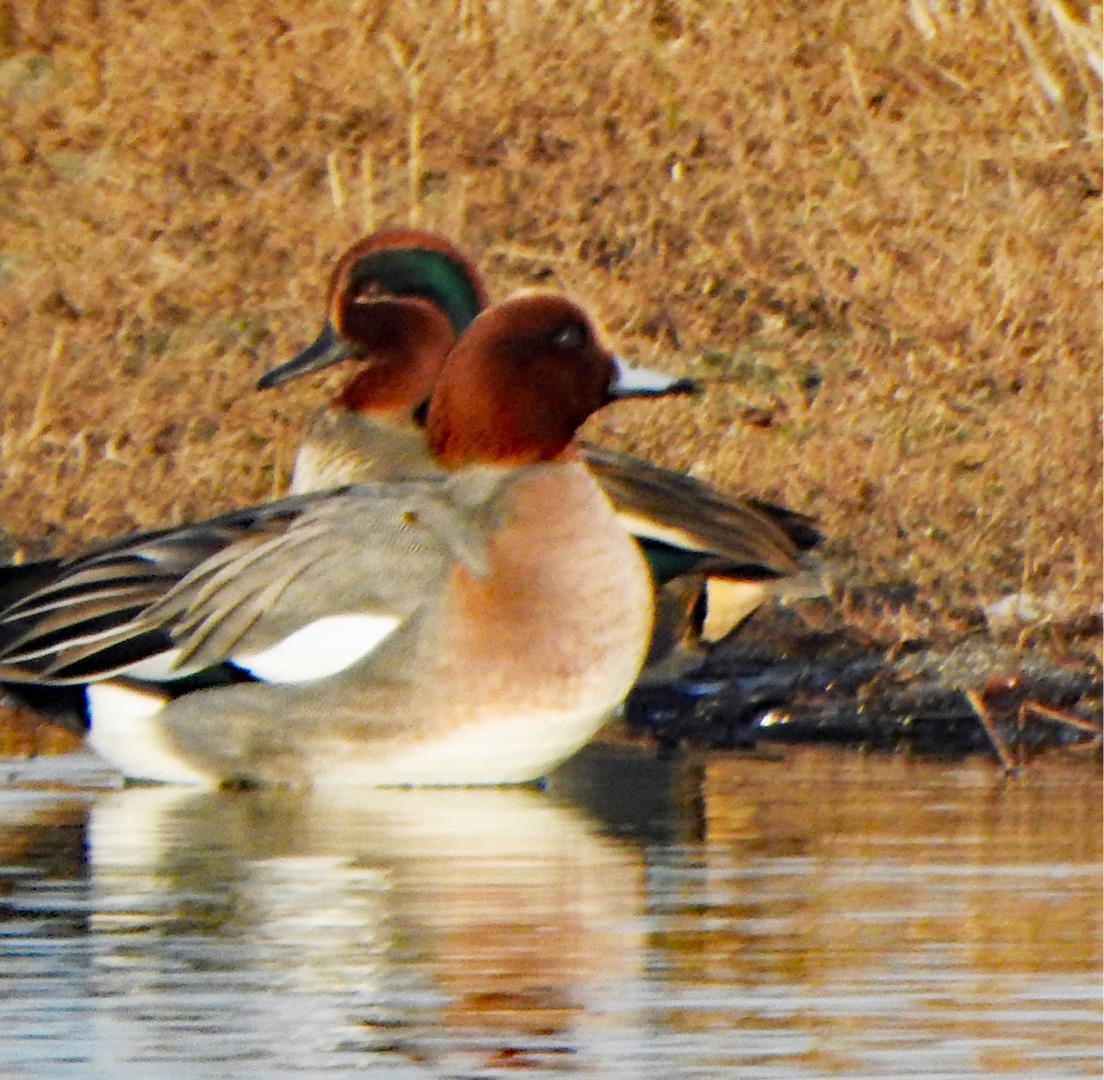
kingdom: Animalia
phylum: Chordata
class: Aves
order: Anseriformes
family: Anatidae
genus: Mareca
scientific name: Mareca penelope
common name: Pibeand
